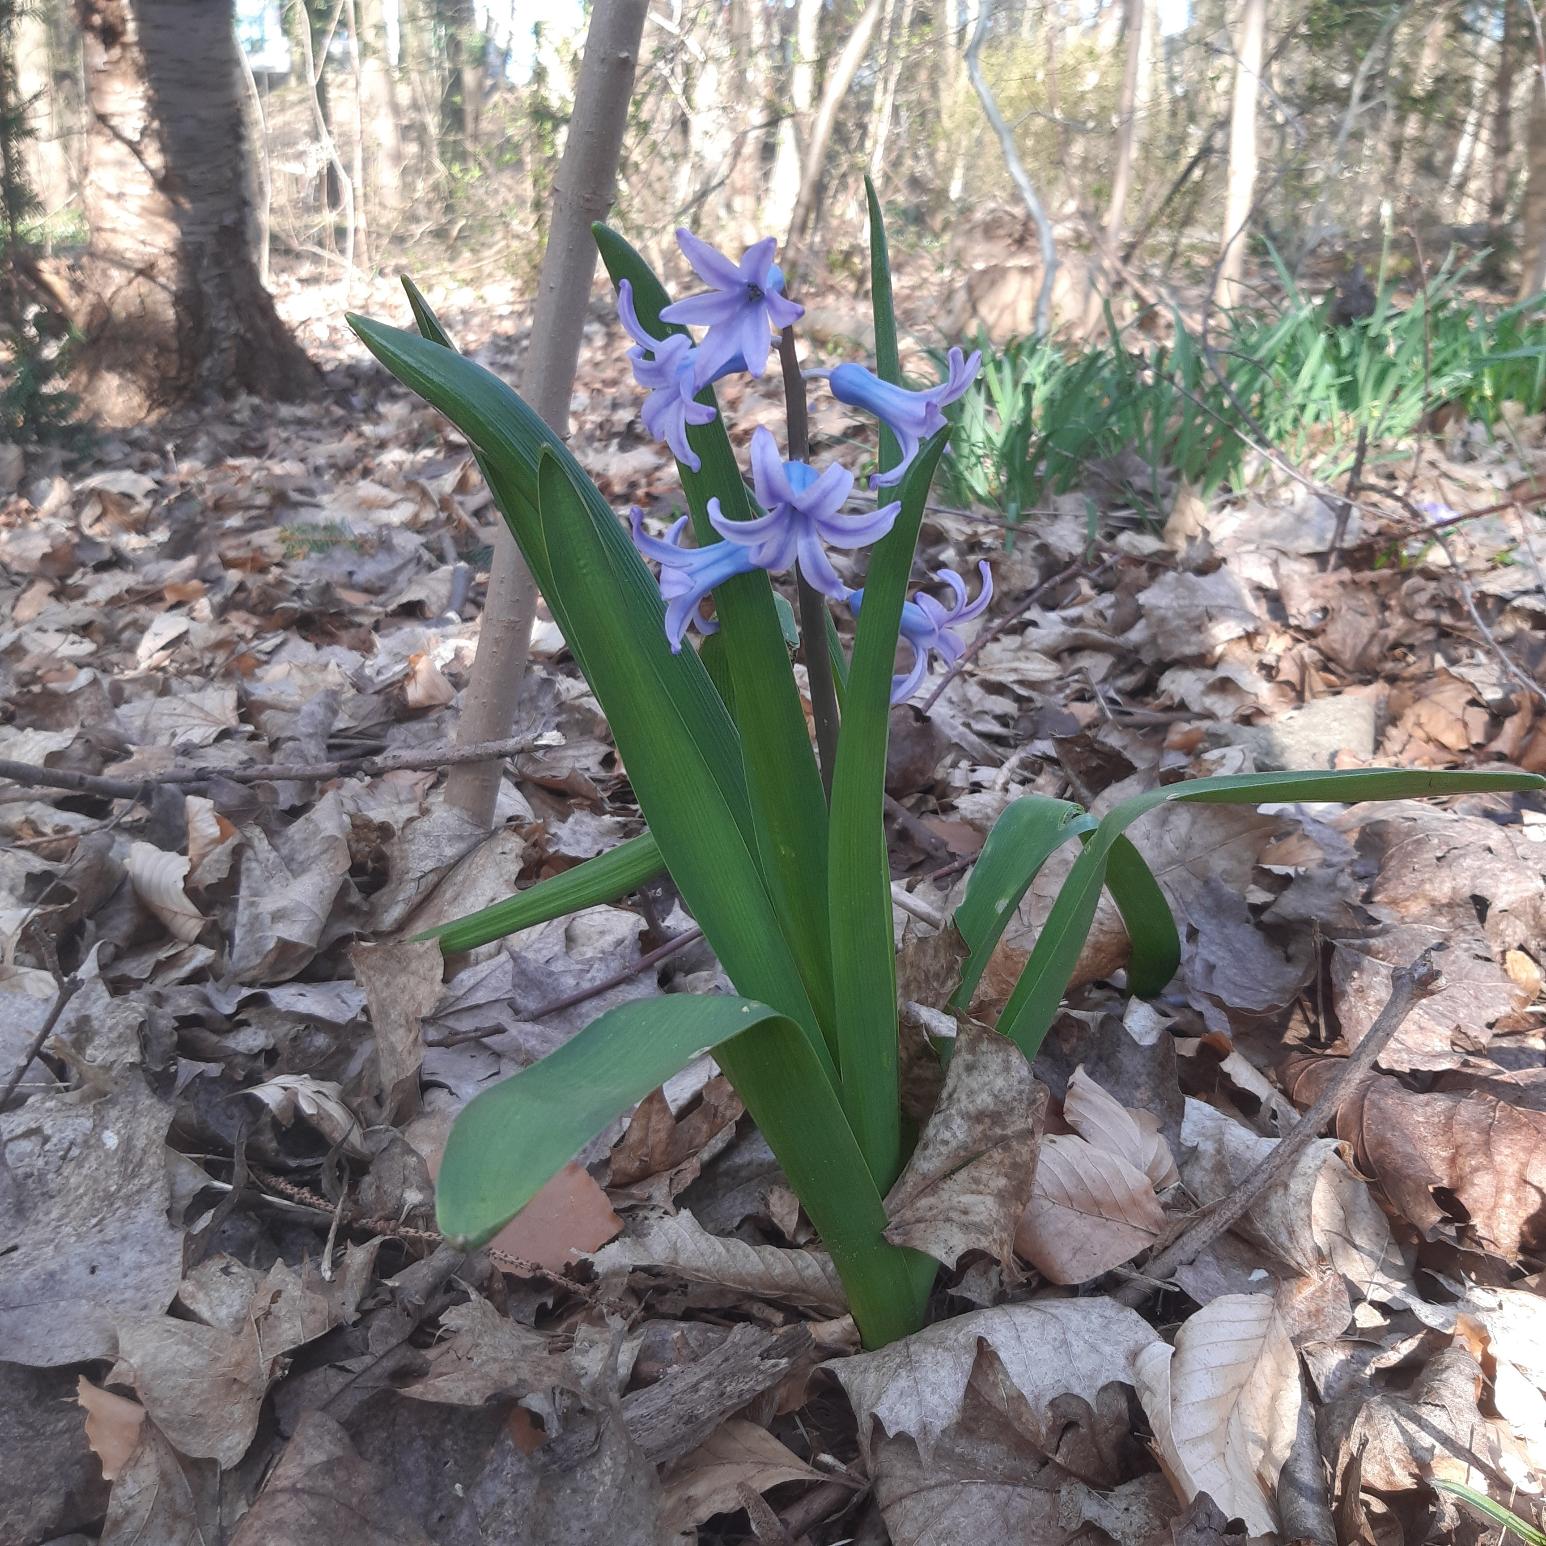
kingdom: Plantae
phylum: Tracheophyta
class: Liliopsida
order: Asparagales
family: Asparagaceae
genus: Hyacinthus
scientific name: Hyacinthus orientalis
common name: Hyacint
